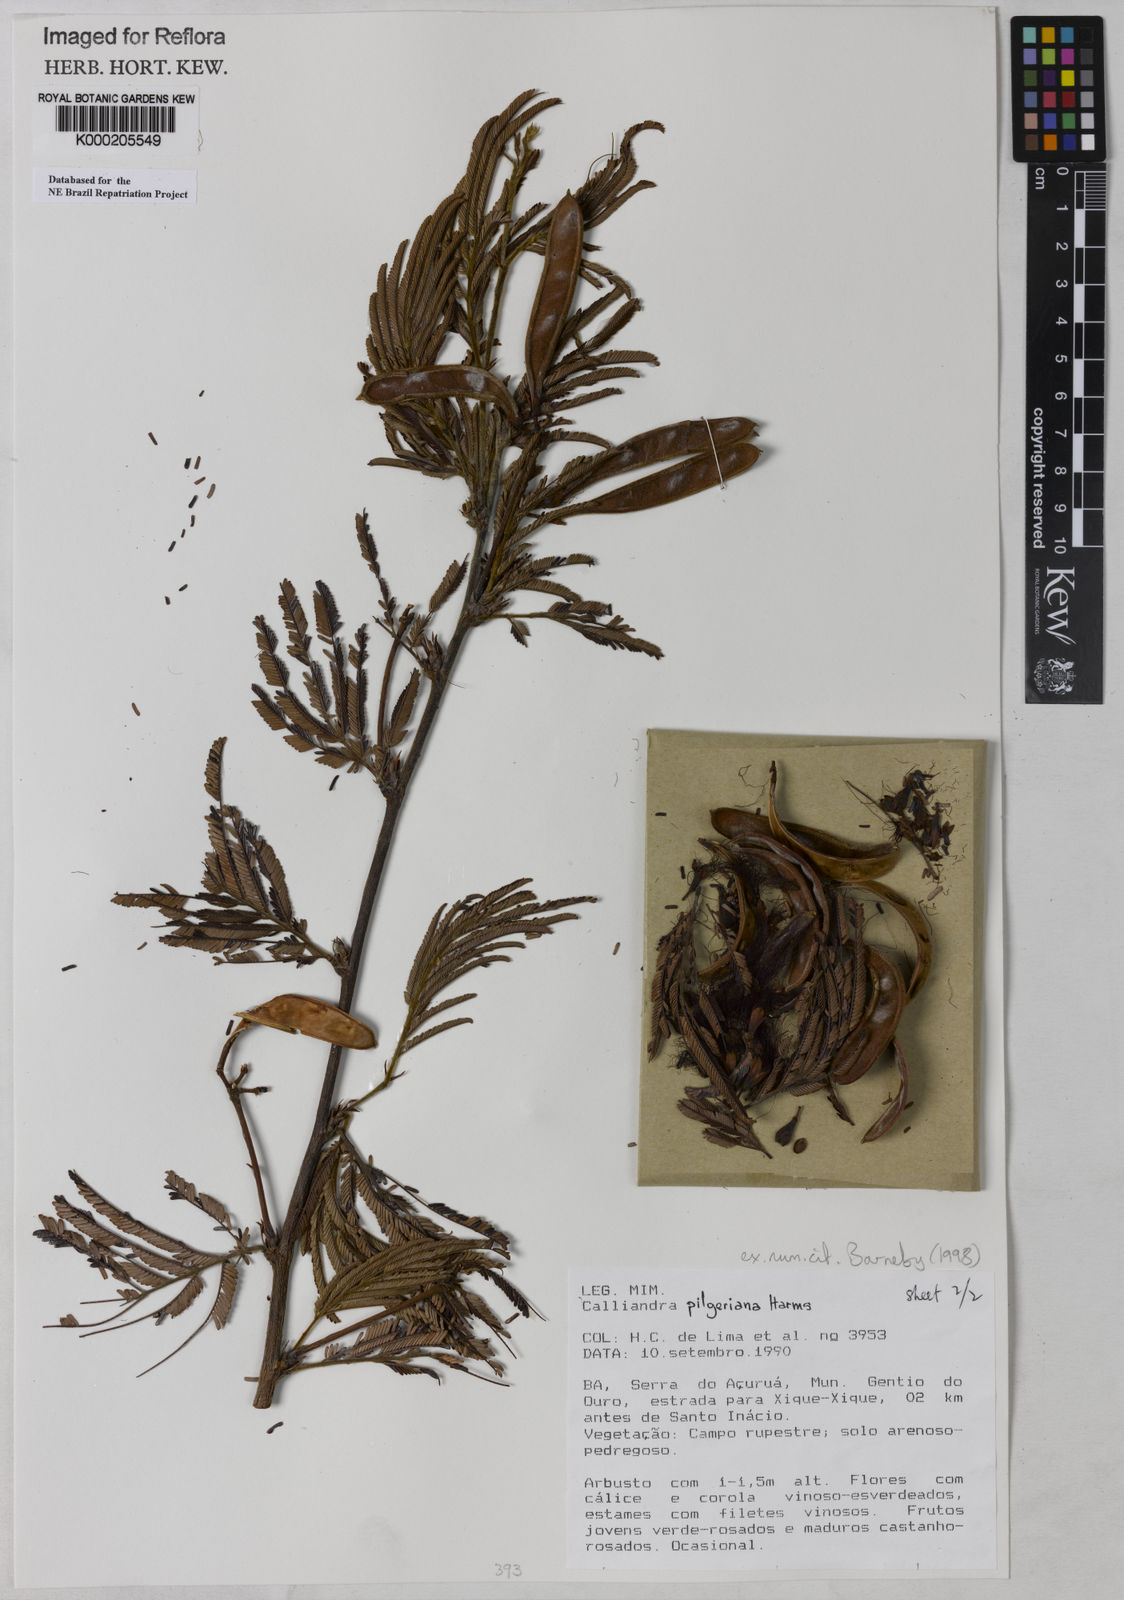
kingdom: Plantae
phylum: Tracheophyta
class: Magnoliopsida
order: Fabales
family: Fabaceae
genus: Calliandra
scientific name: Calliandra pilgeriana
